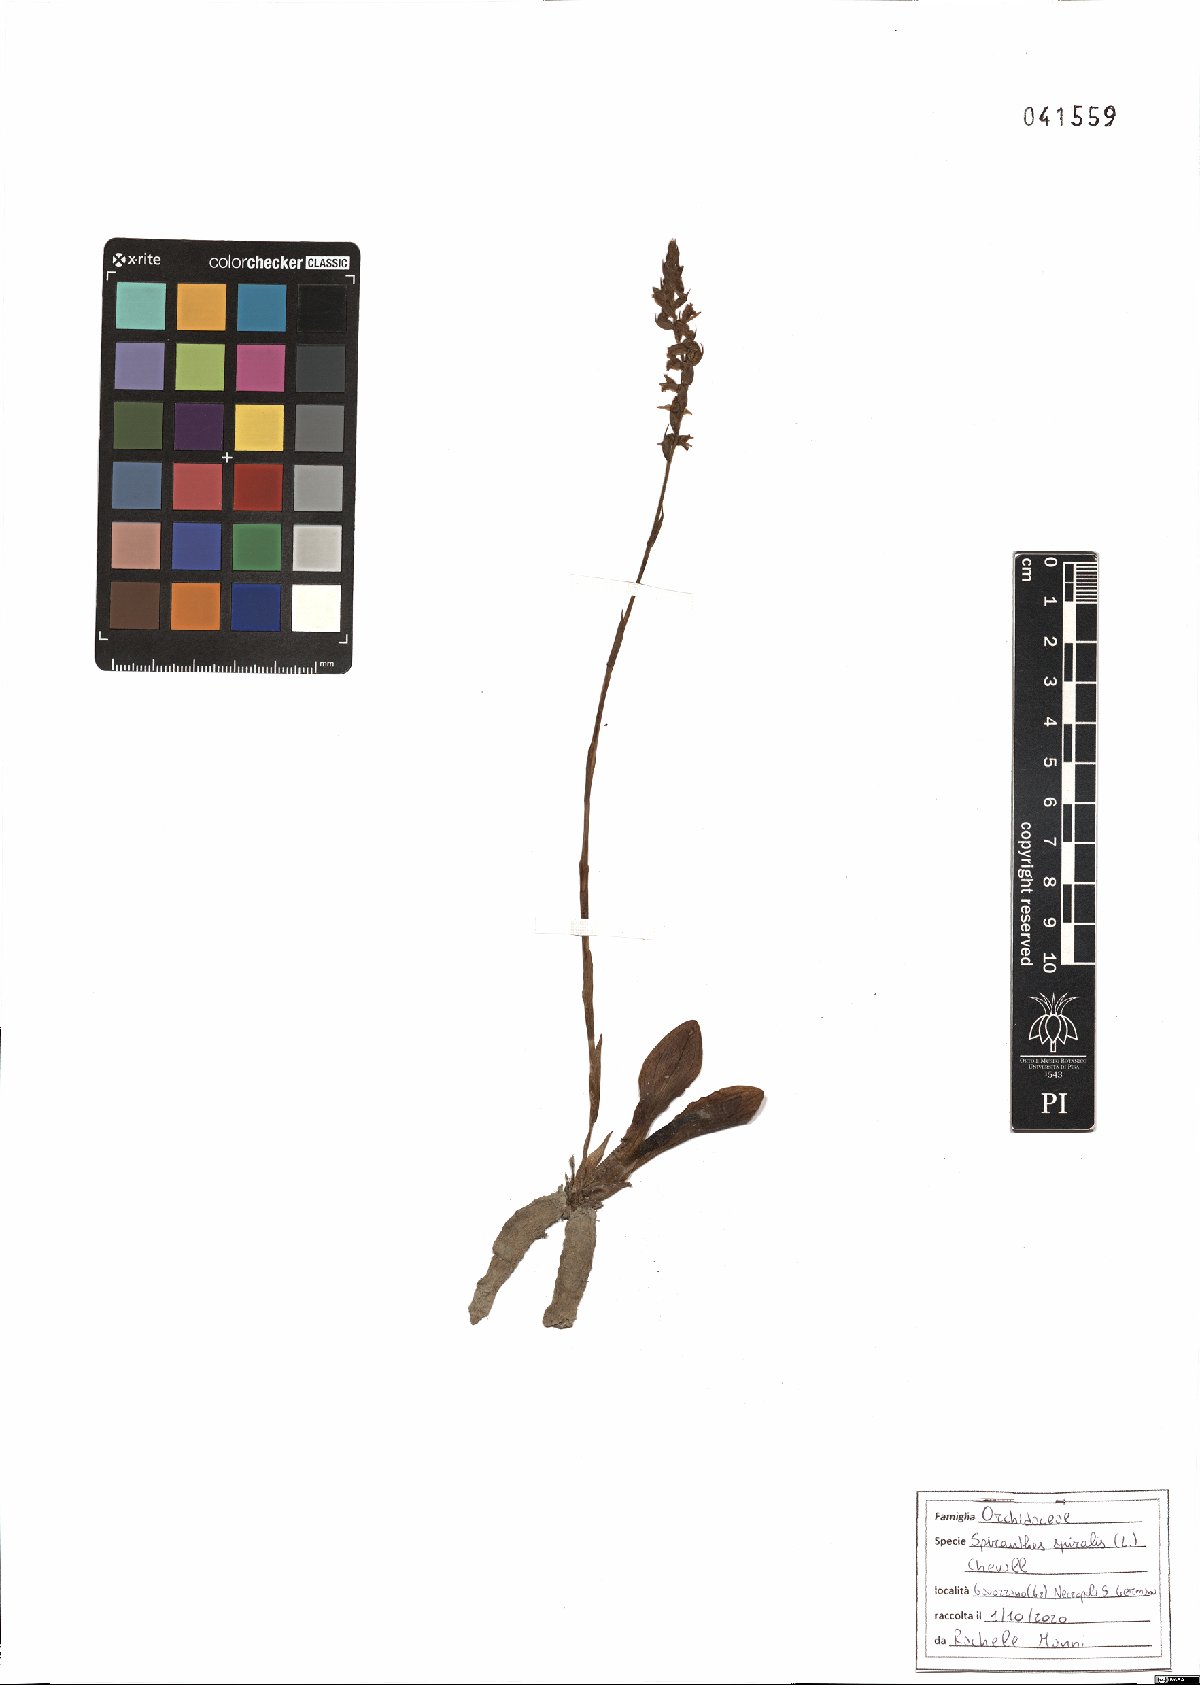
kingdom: Plantae
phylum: Tracheophyta
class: Liliopsida
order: Asparagales
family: Orchidaceae
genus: Spiranthes
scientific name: Spiranthes spiralis
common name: Autumn lady's-tresses
